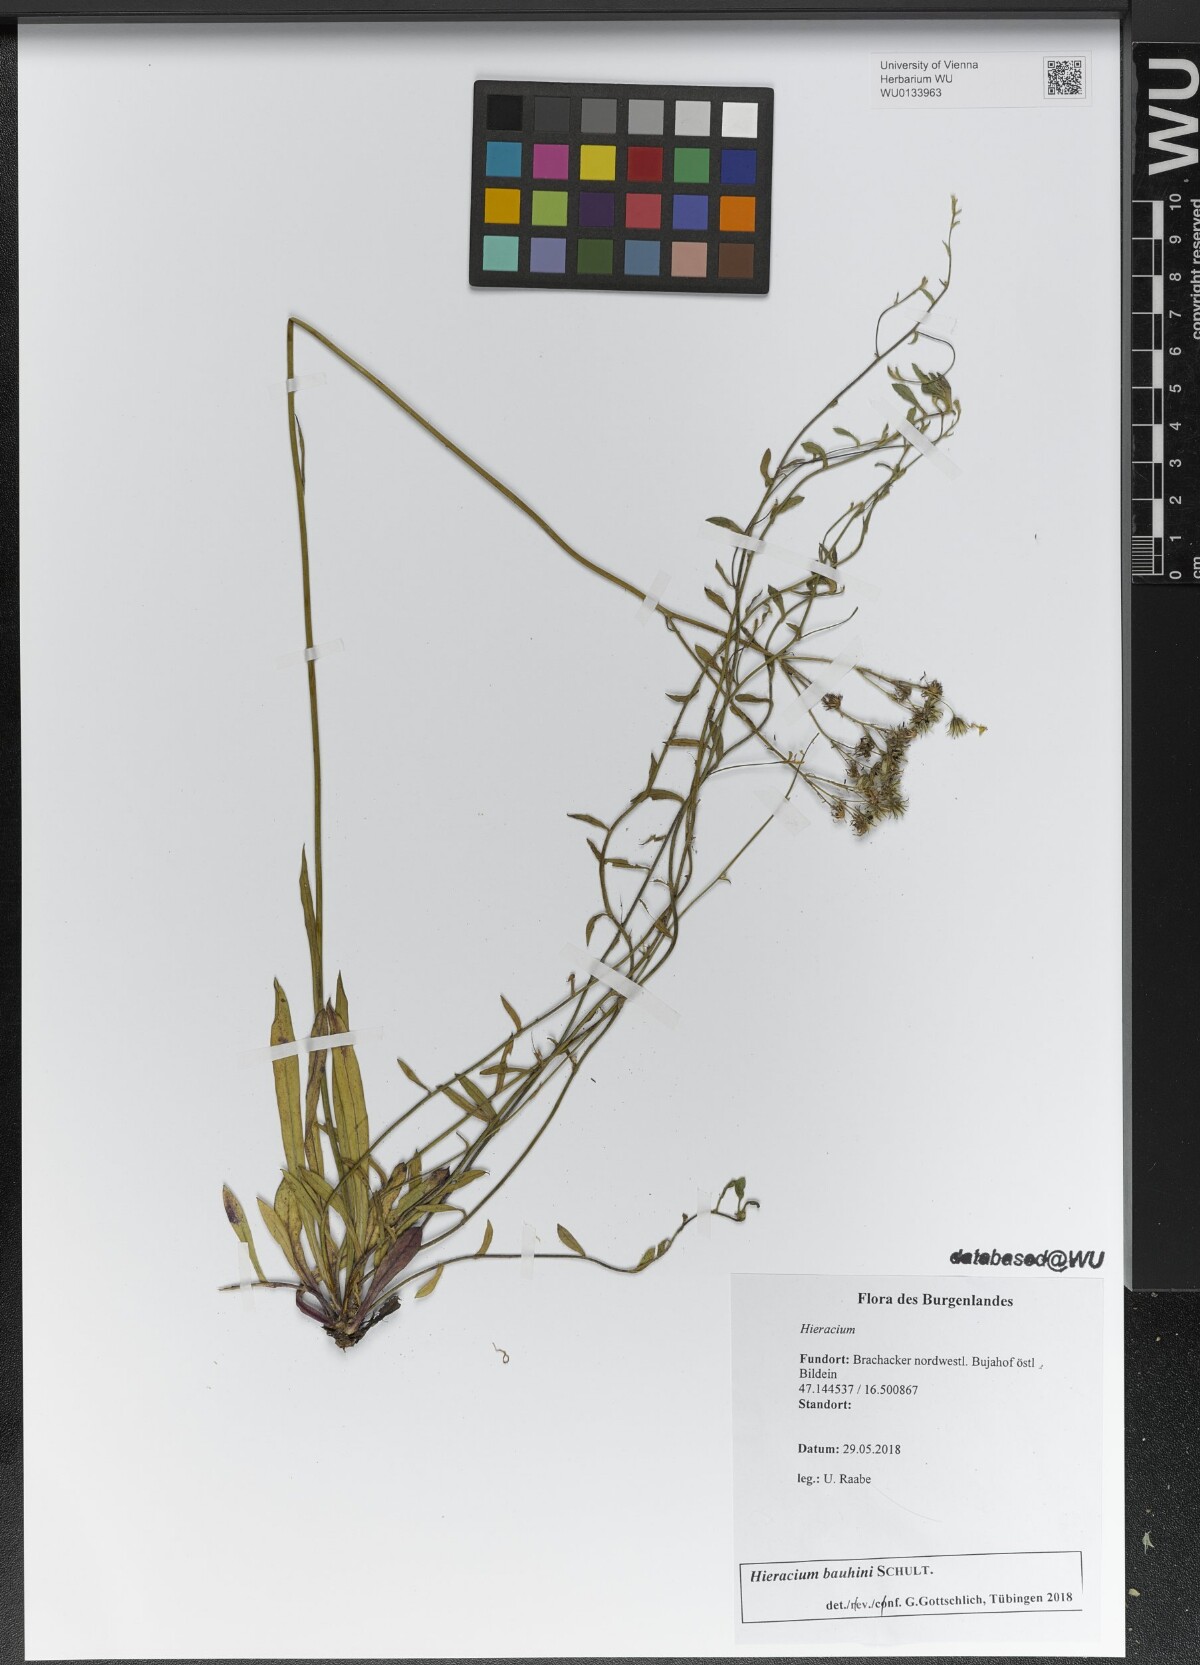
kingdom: Plantae
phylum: Tracheophyta
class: Magnoliopsida
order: Asterales
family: Asteraceae
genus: Pilosella
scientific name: Pilosella bauhini
